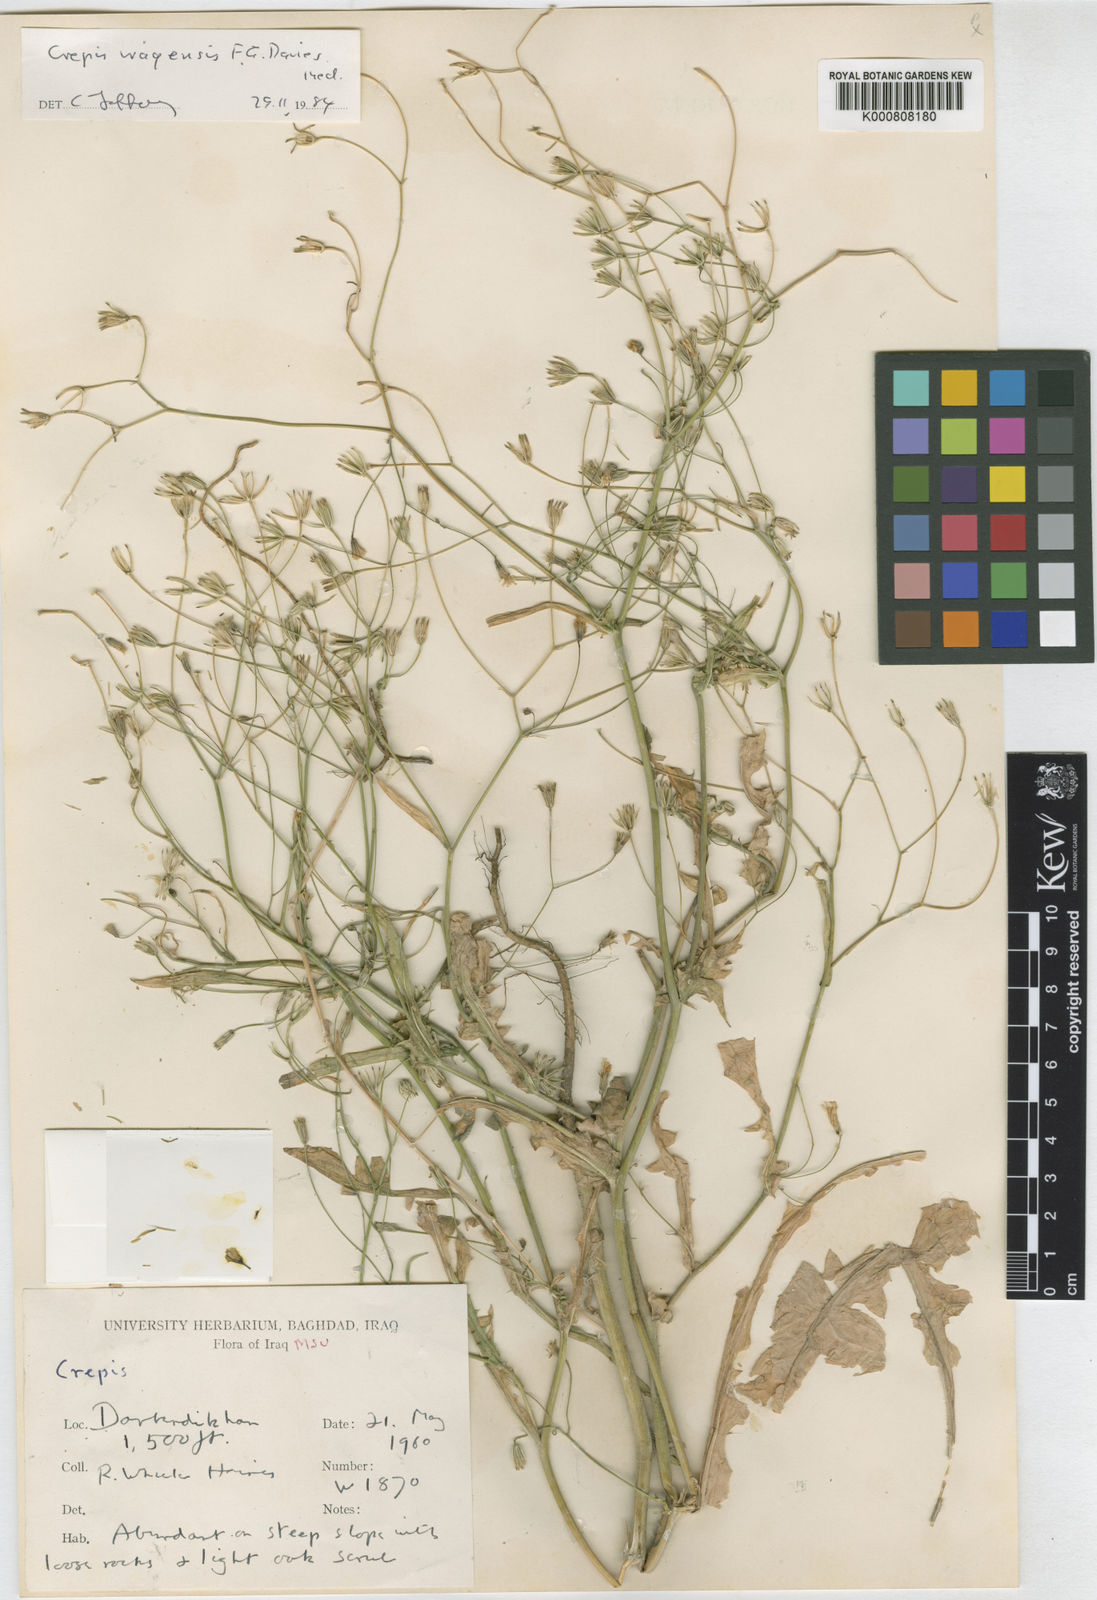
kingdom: Plantae
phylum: Tracheophyta
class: Magnoliopsida
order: Asterales
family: Asteraceae
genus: Crepis
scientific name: Crepis pulchra
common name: Hawk's-beard
